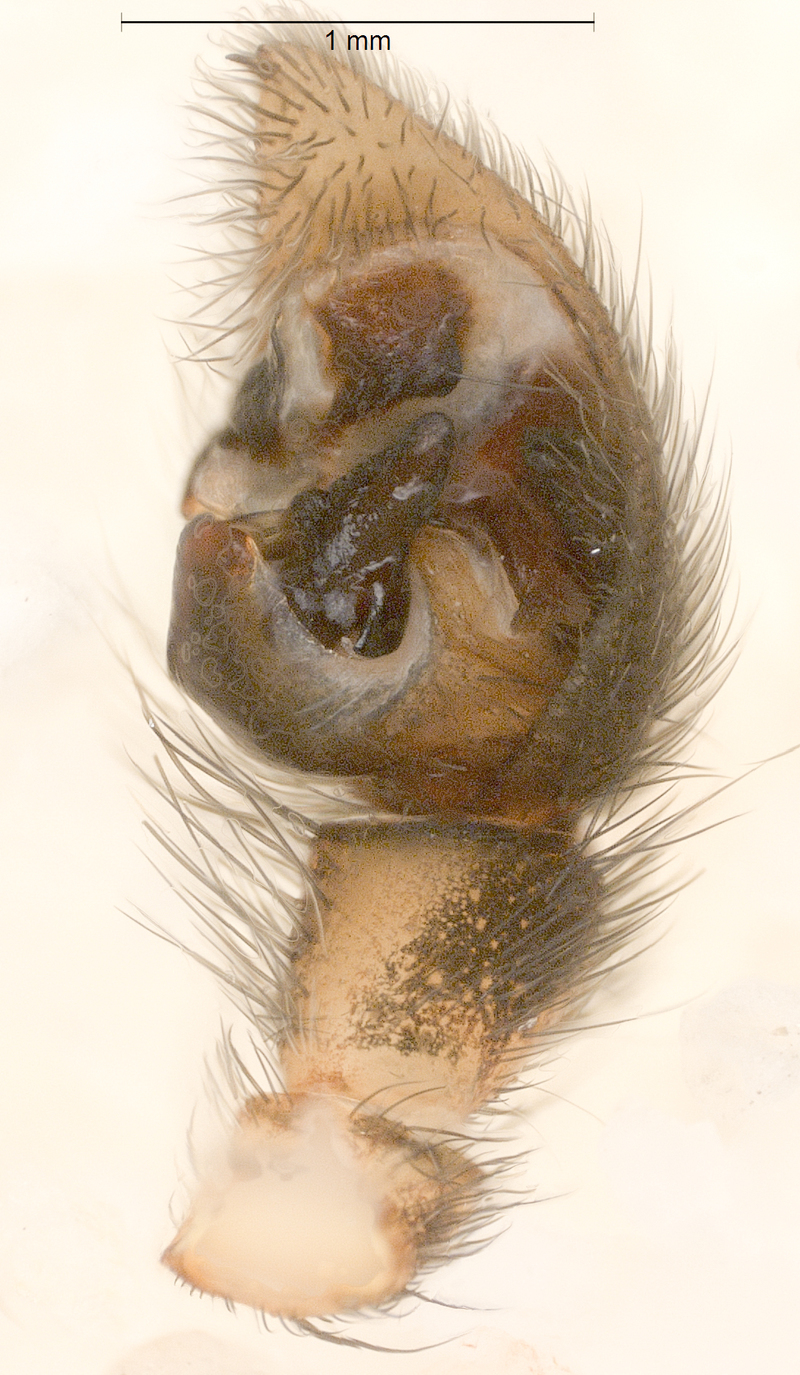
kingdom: Animalia
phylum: Arthropoda
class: Arachnida
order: Araneae
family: Lycosidae
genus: Pardosa
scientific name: Pardosa palustris
